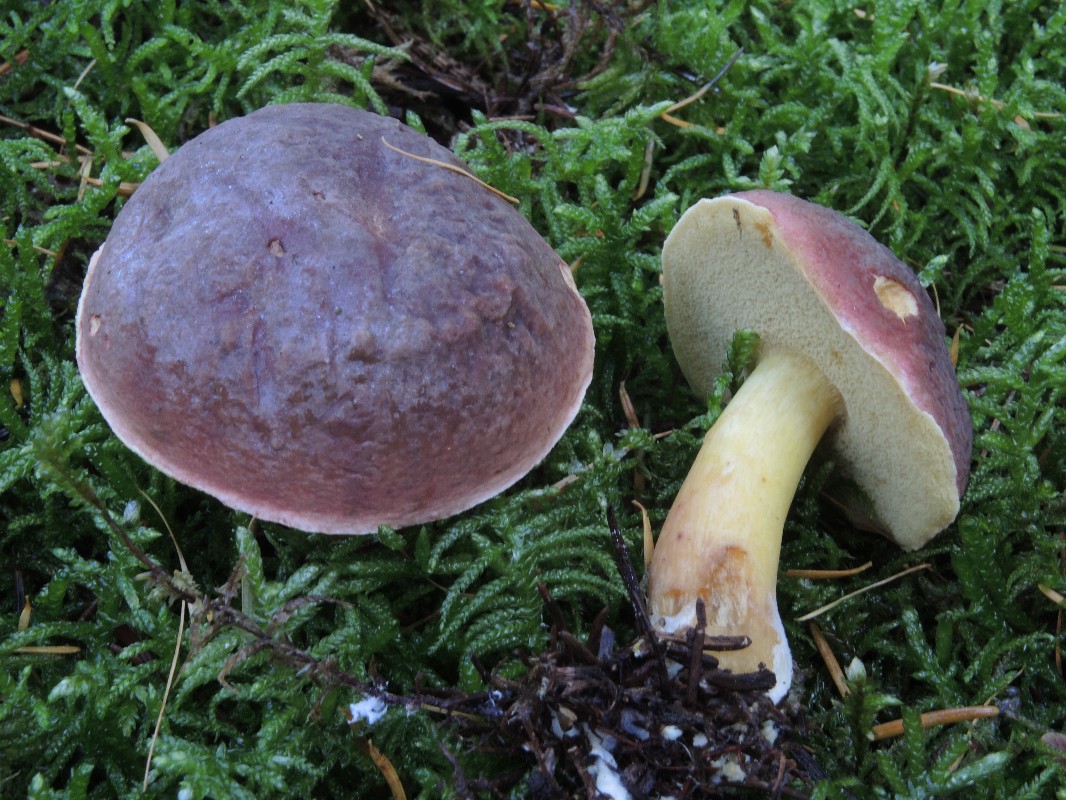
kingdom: Fungi
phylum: Basidiomycota
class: Agaricomycetes
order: Boletales
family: Boletaceae
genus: Xerocomellus
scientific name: Xerocomellus pruinatus
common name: dugget rørhat
